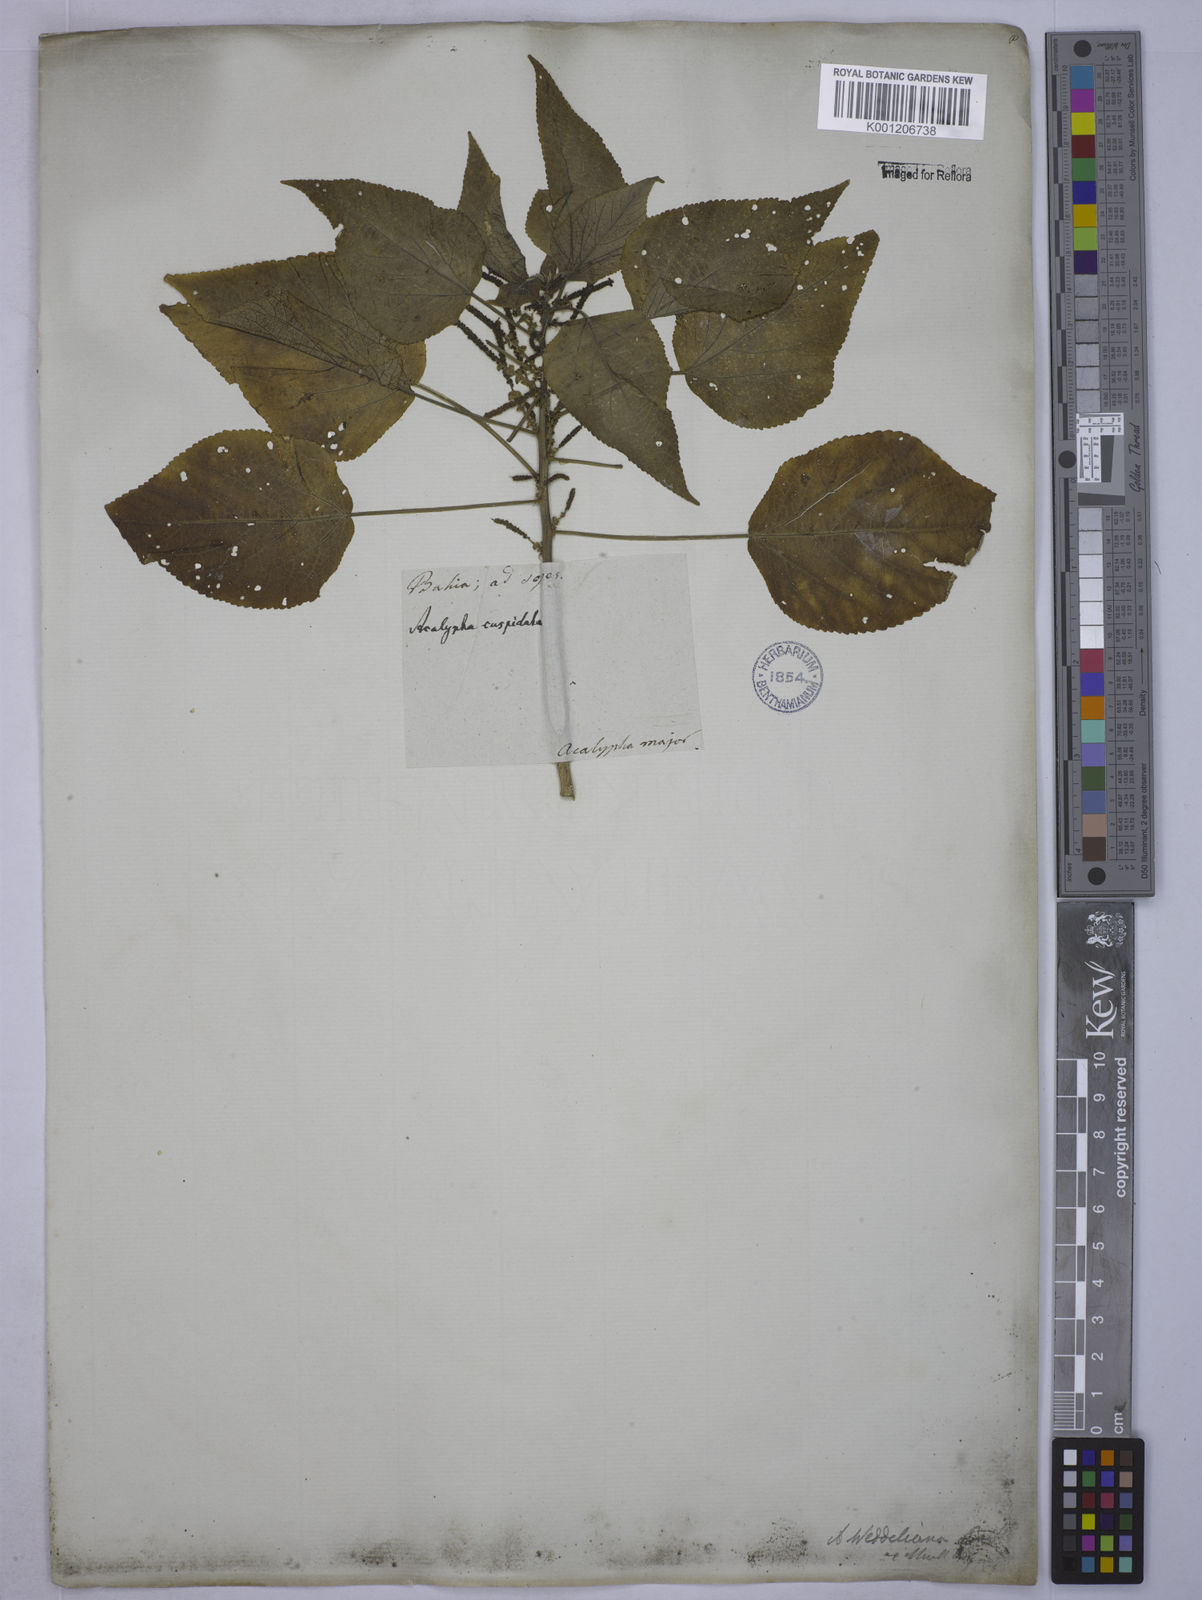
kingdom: Plantae
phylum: Tracheophyta
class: Magnoliopsida
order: Malpighiales
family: Euphorbiaceae
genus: Acalypha
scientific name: Acalypha weddelliana
